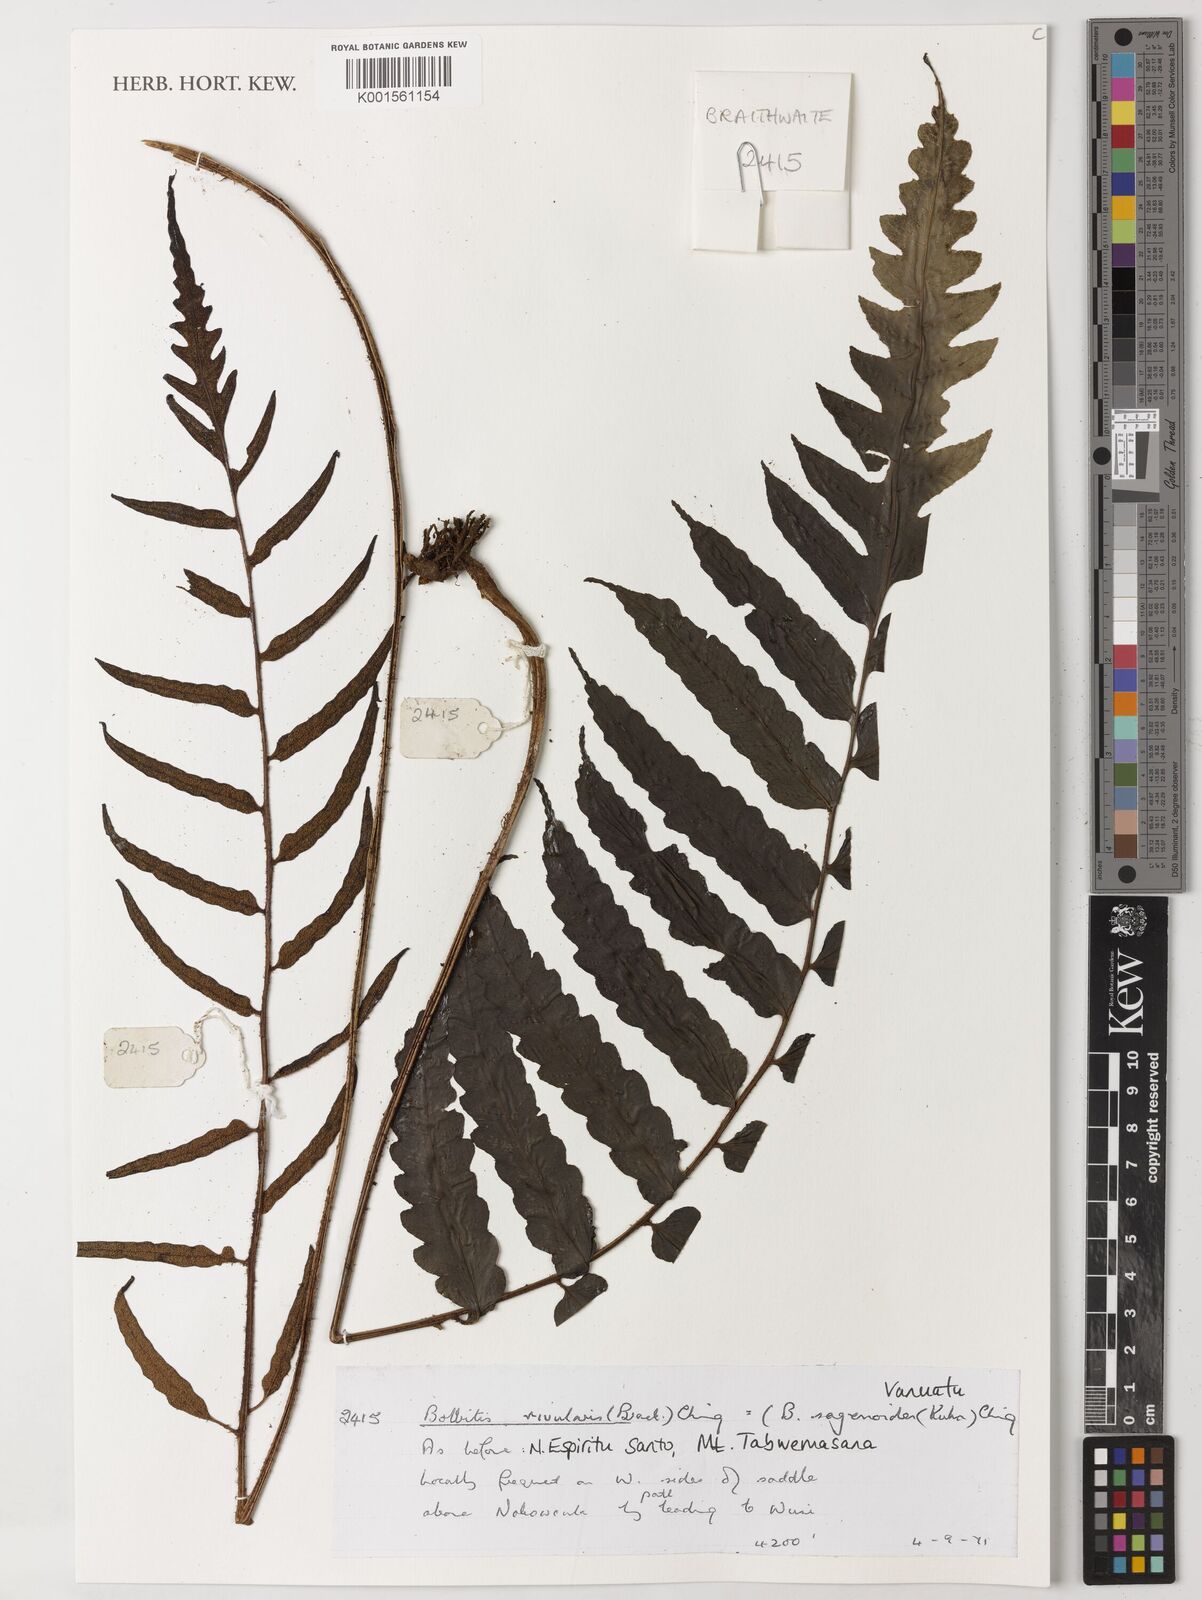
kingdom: Plantae
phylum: Tracheophyta
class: Polypodiopsida
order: Polypodiales
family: Dryopteridaceae
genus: Bolbitis
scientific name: Bolbitis rivularis
